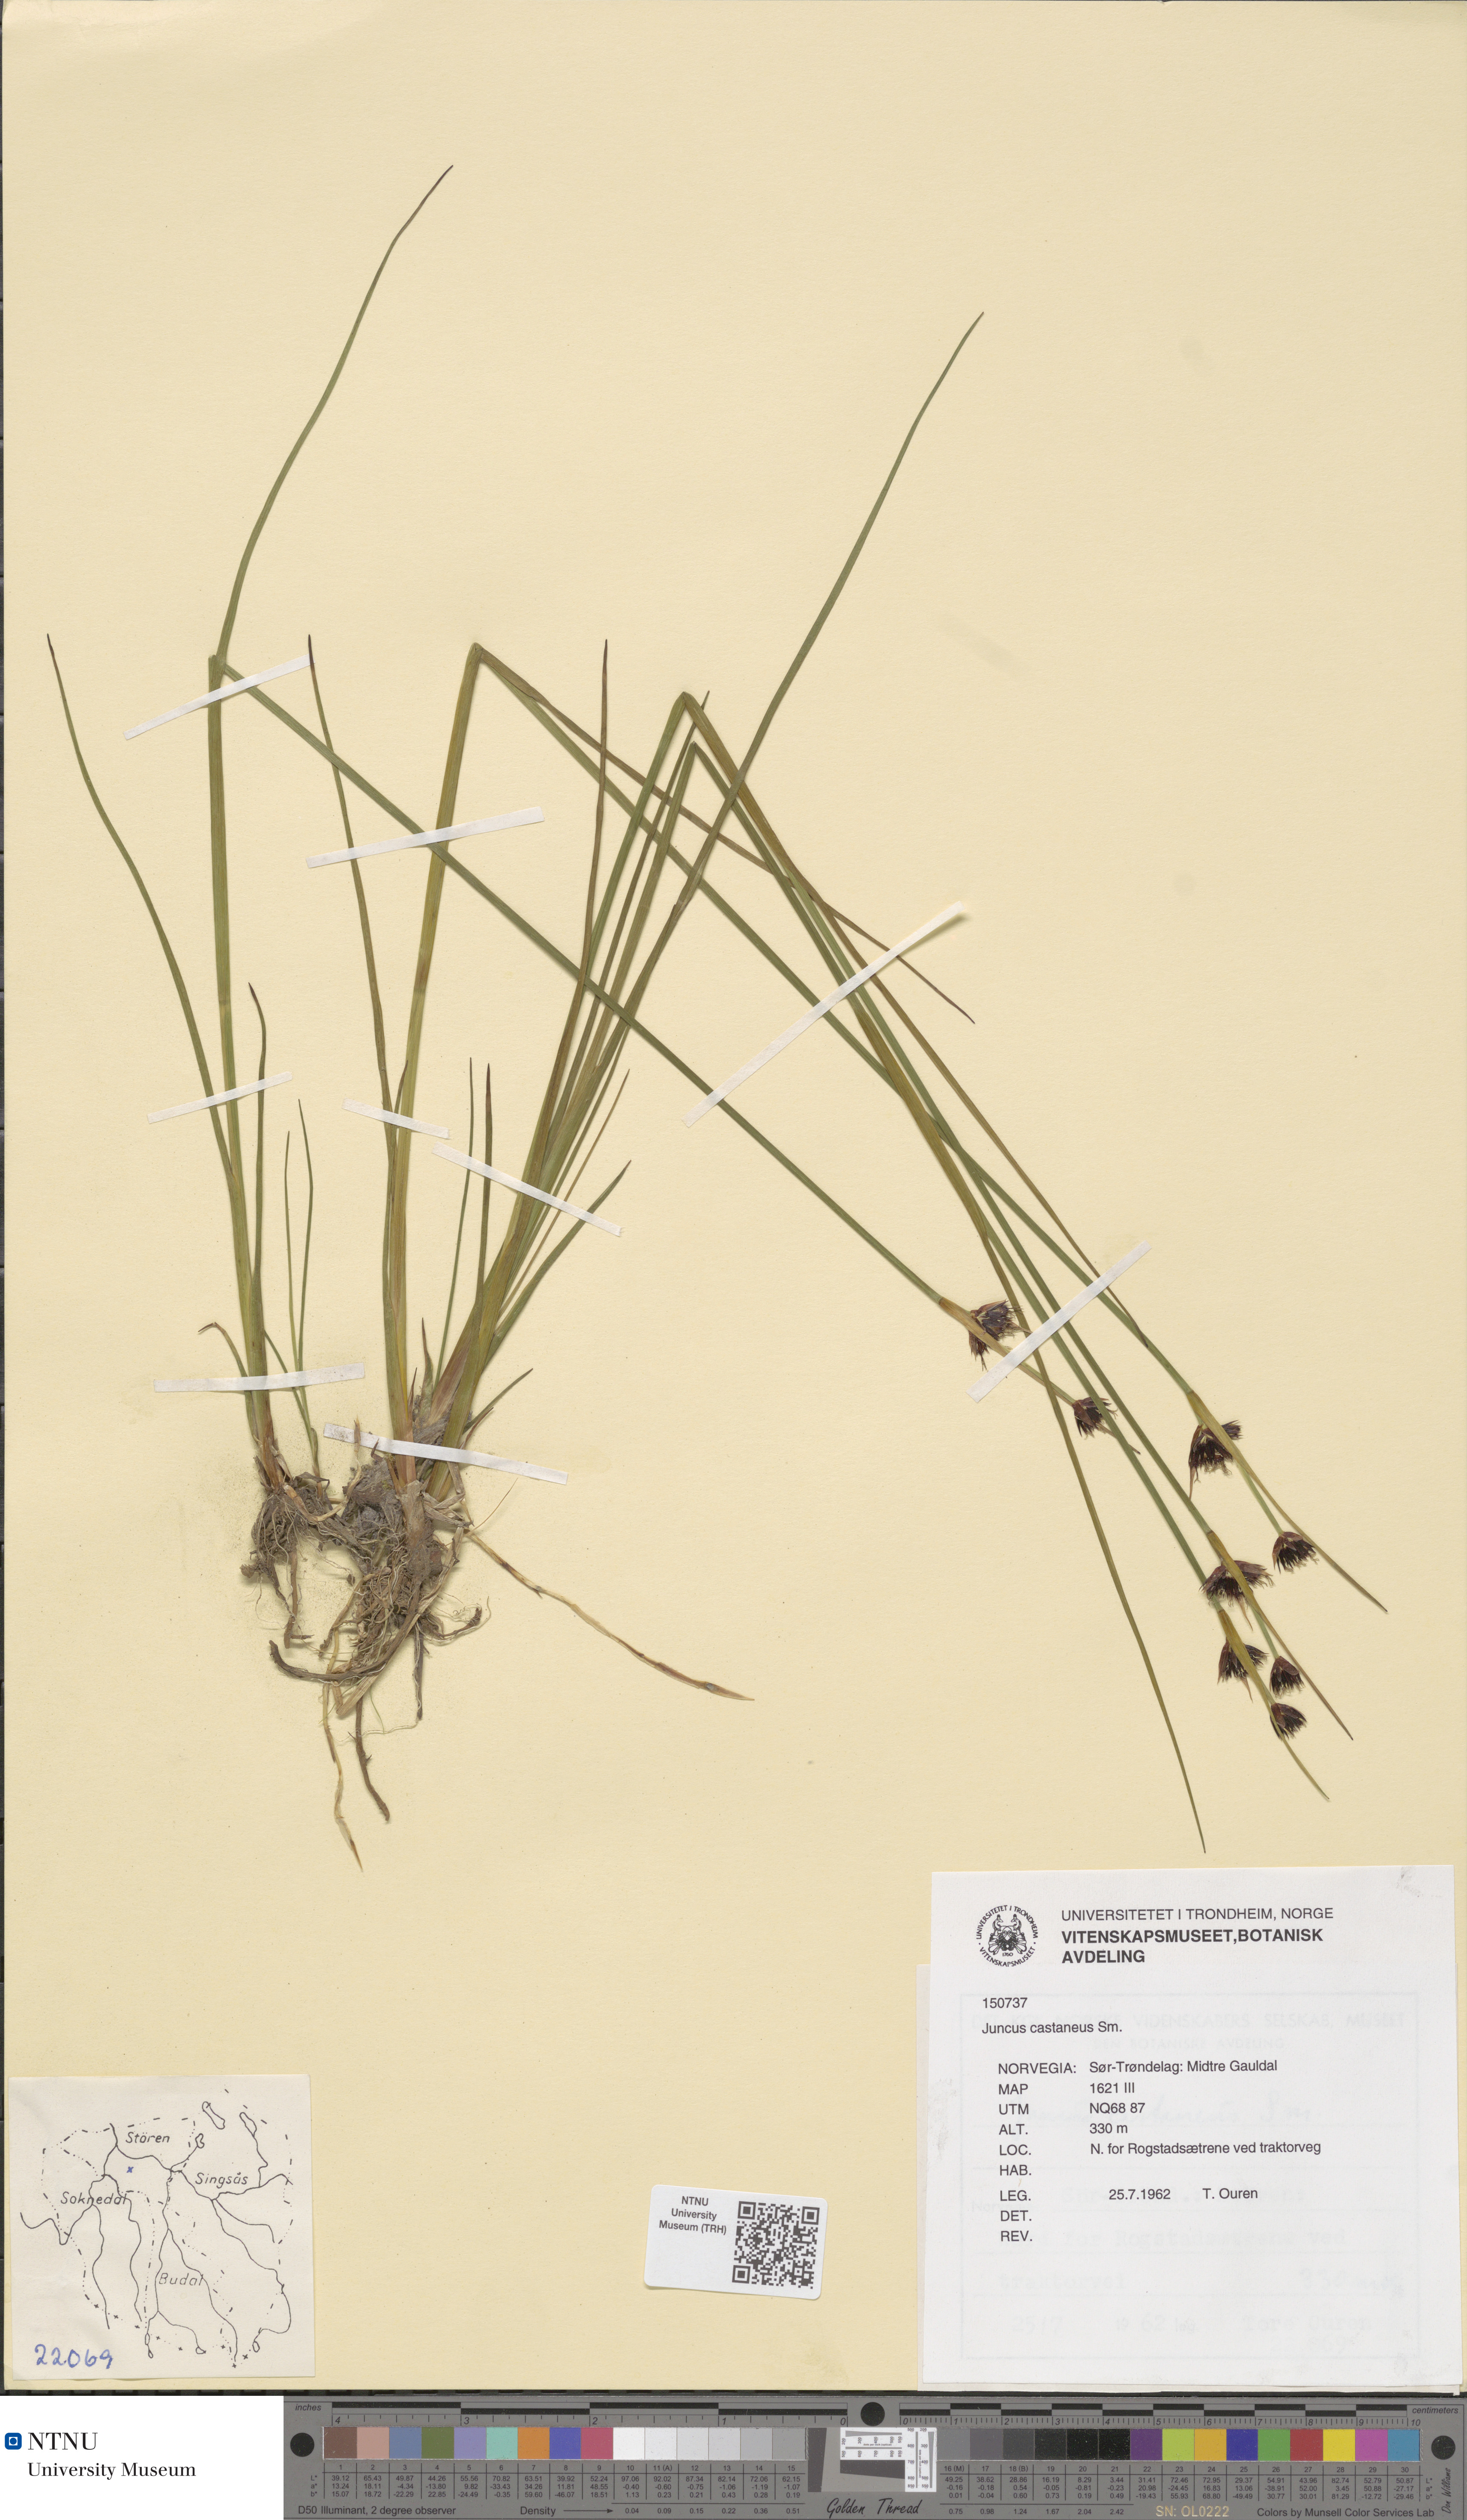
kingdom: Plantae
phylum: Tracheophyta
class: Liliopsida
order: Poales
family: Juncaceae
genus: Juncus
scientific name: Juncus castaneus
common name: Chestnut rush
